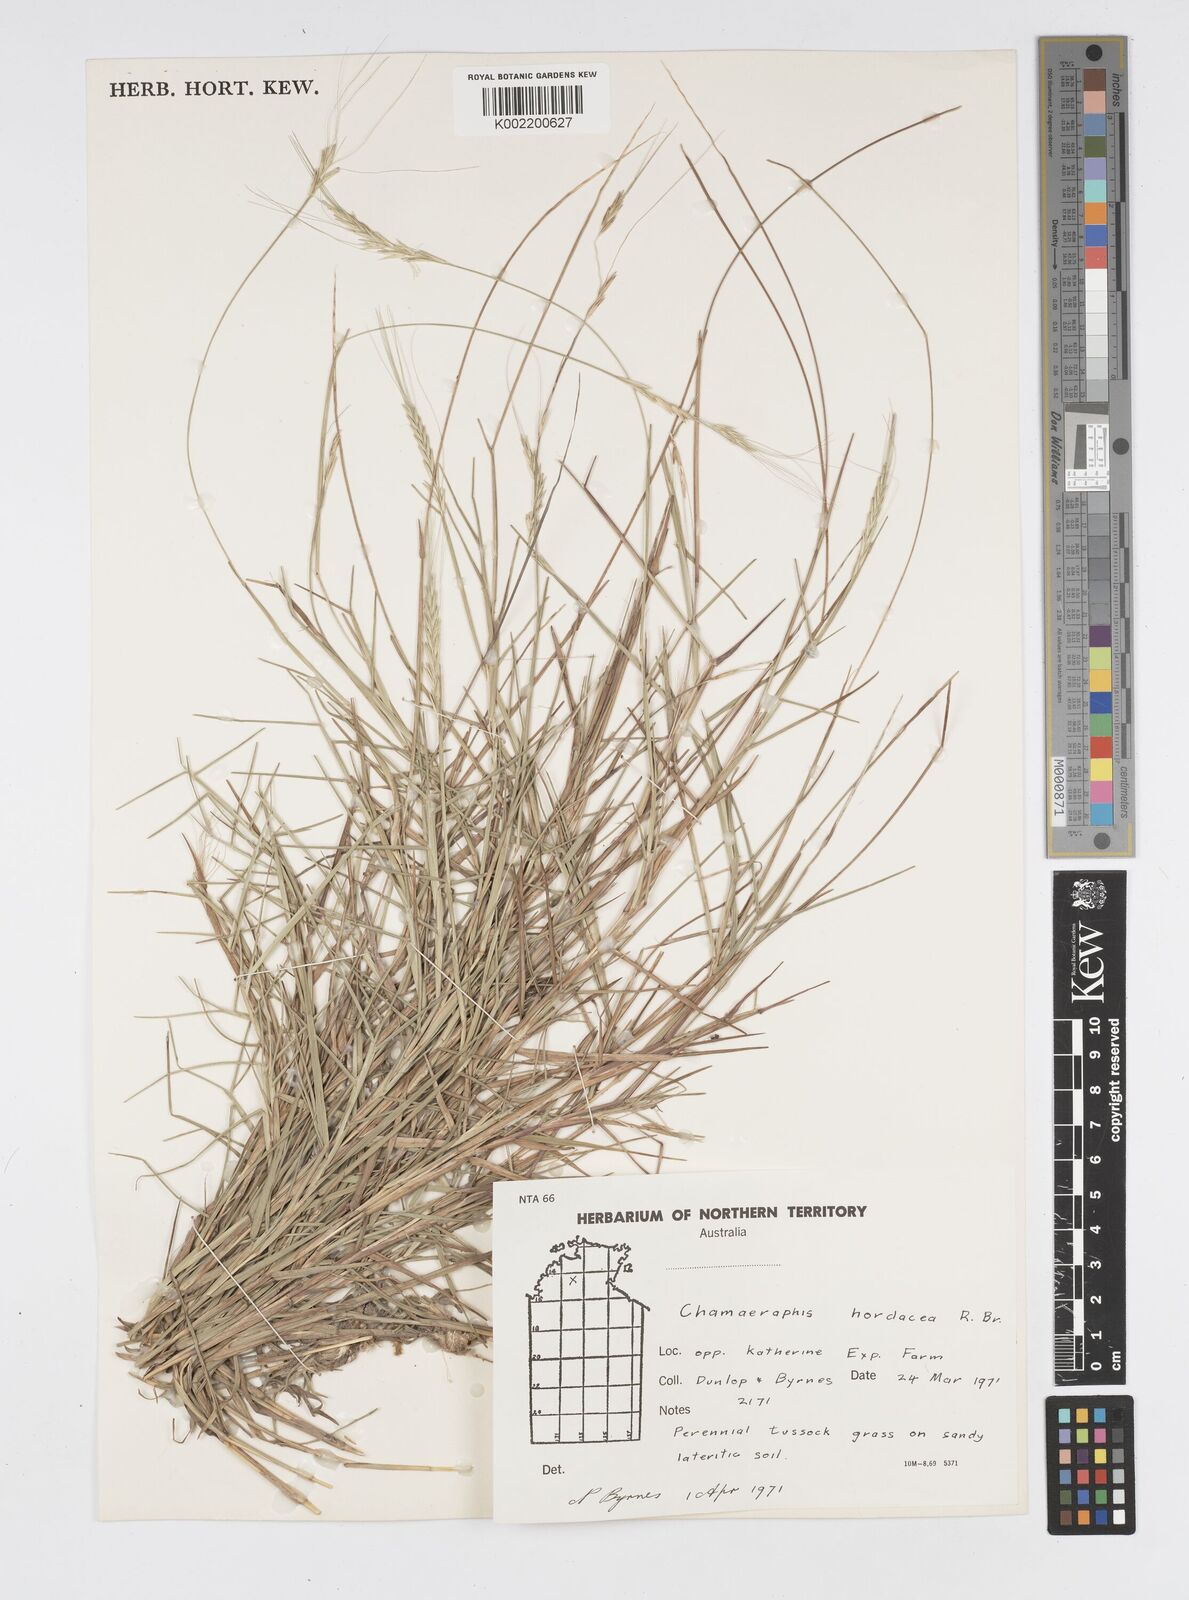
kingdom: Plantae
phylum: Tracheophyta
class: Liliopsida
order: Poales
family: Poaceae
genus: Chamaeraphis
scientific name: Chamaeraphis hordeacea
